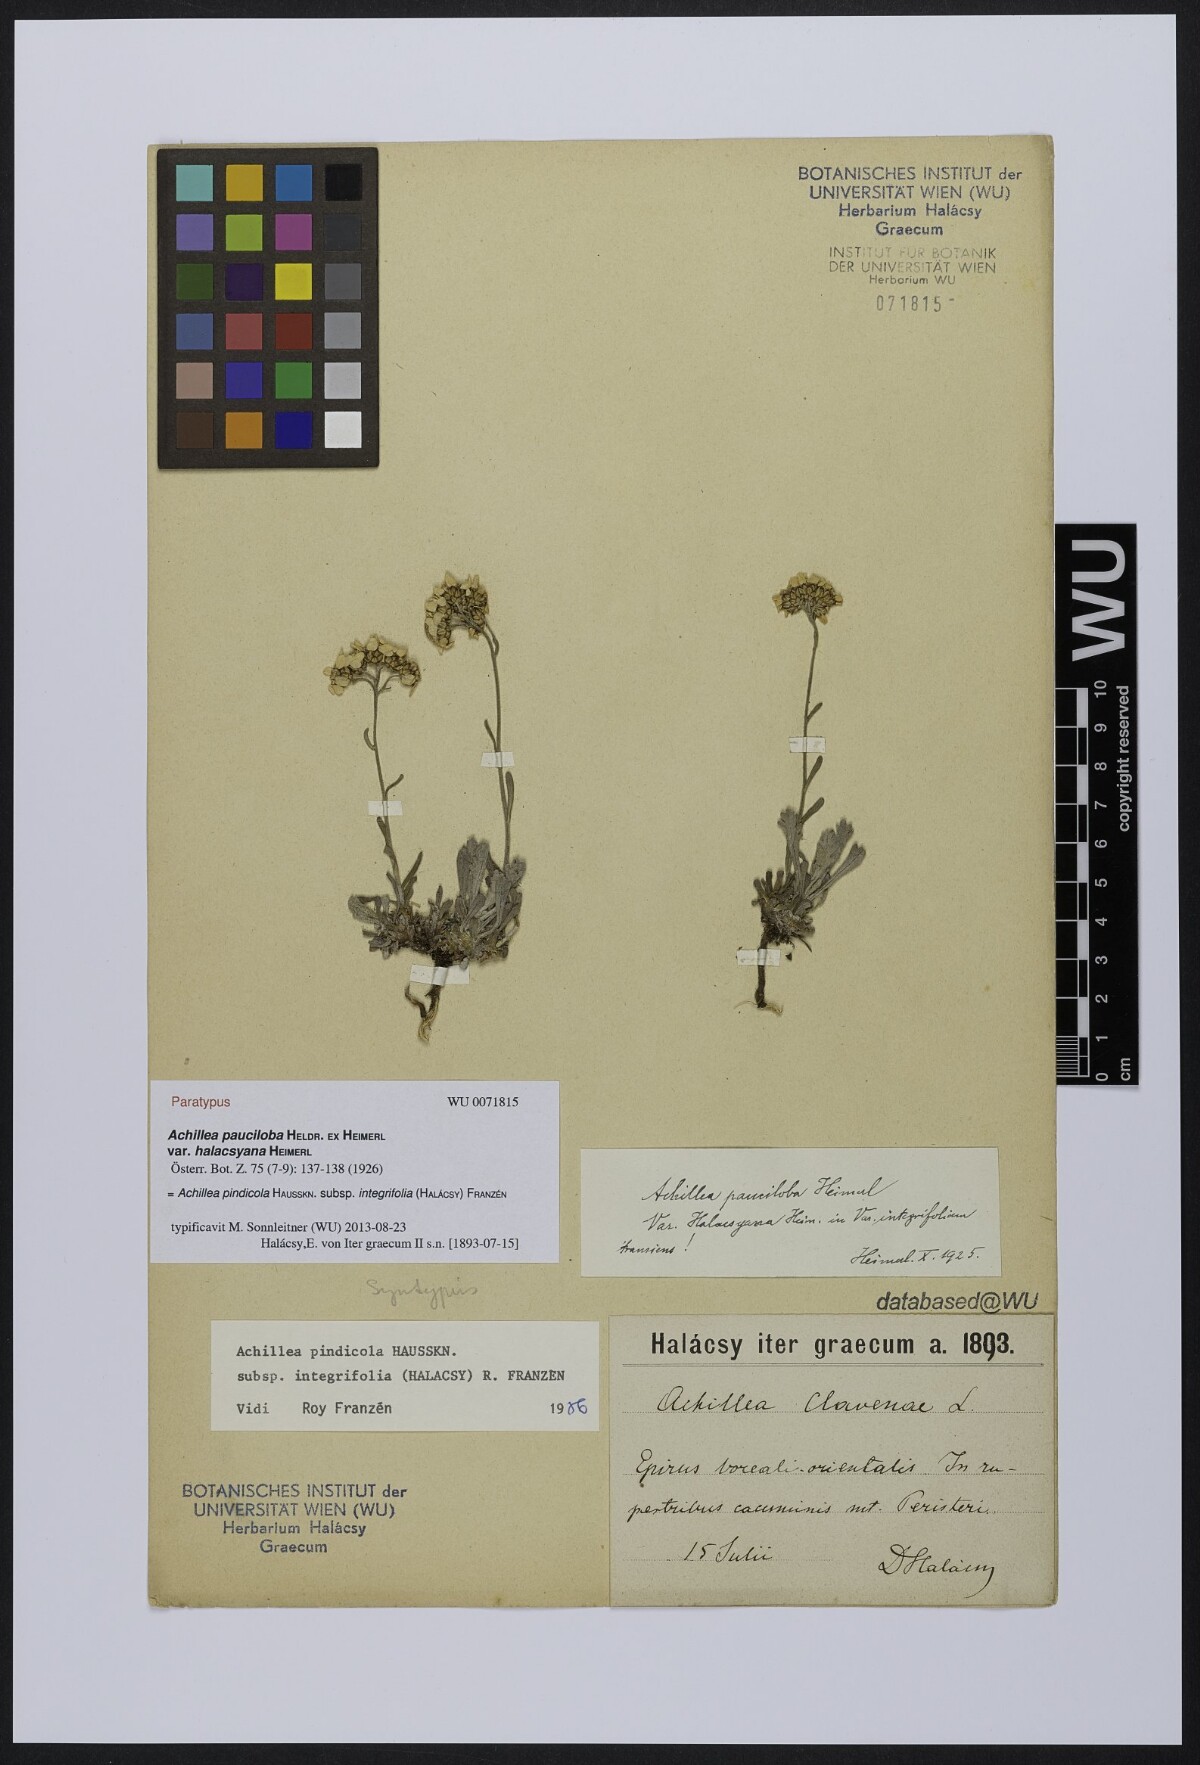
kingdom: Plantae
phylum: Tracheophyta
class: Magnoliopsida
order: Asterales
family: Asteraceae
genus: Achillea
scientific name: Achillea pindicola
